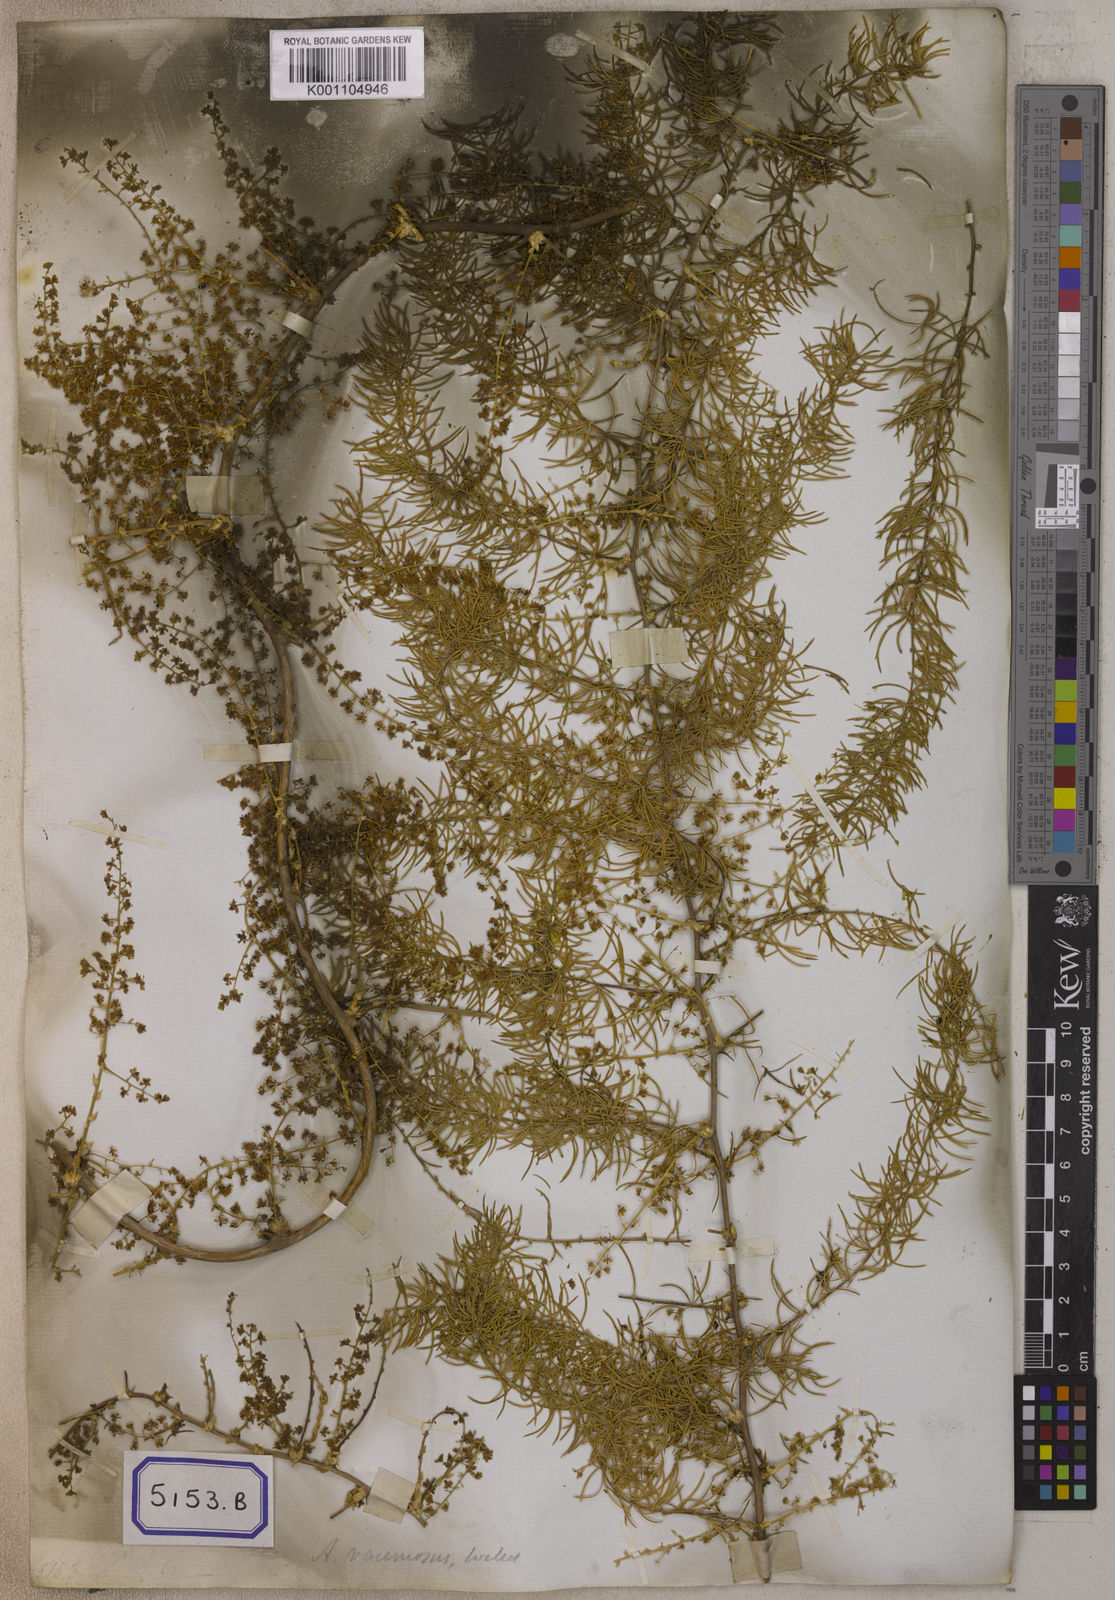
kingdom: Plantae
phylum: Tracheophyta
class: Liliopsida
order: Asparagales
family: Asparagaceae
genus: Asparagus
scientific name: Asparagus racemosus
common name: Asparagus-fern
